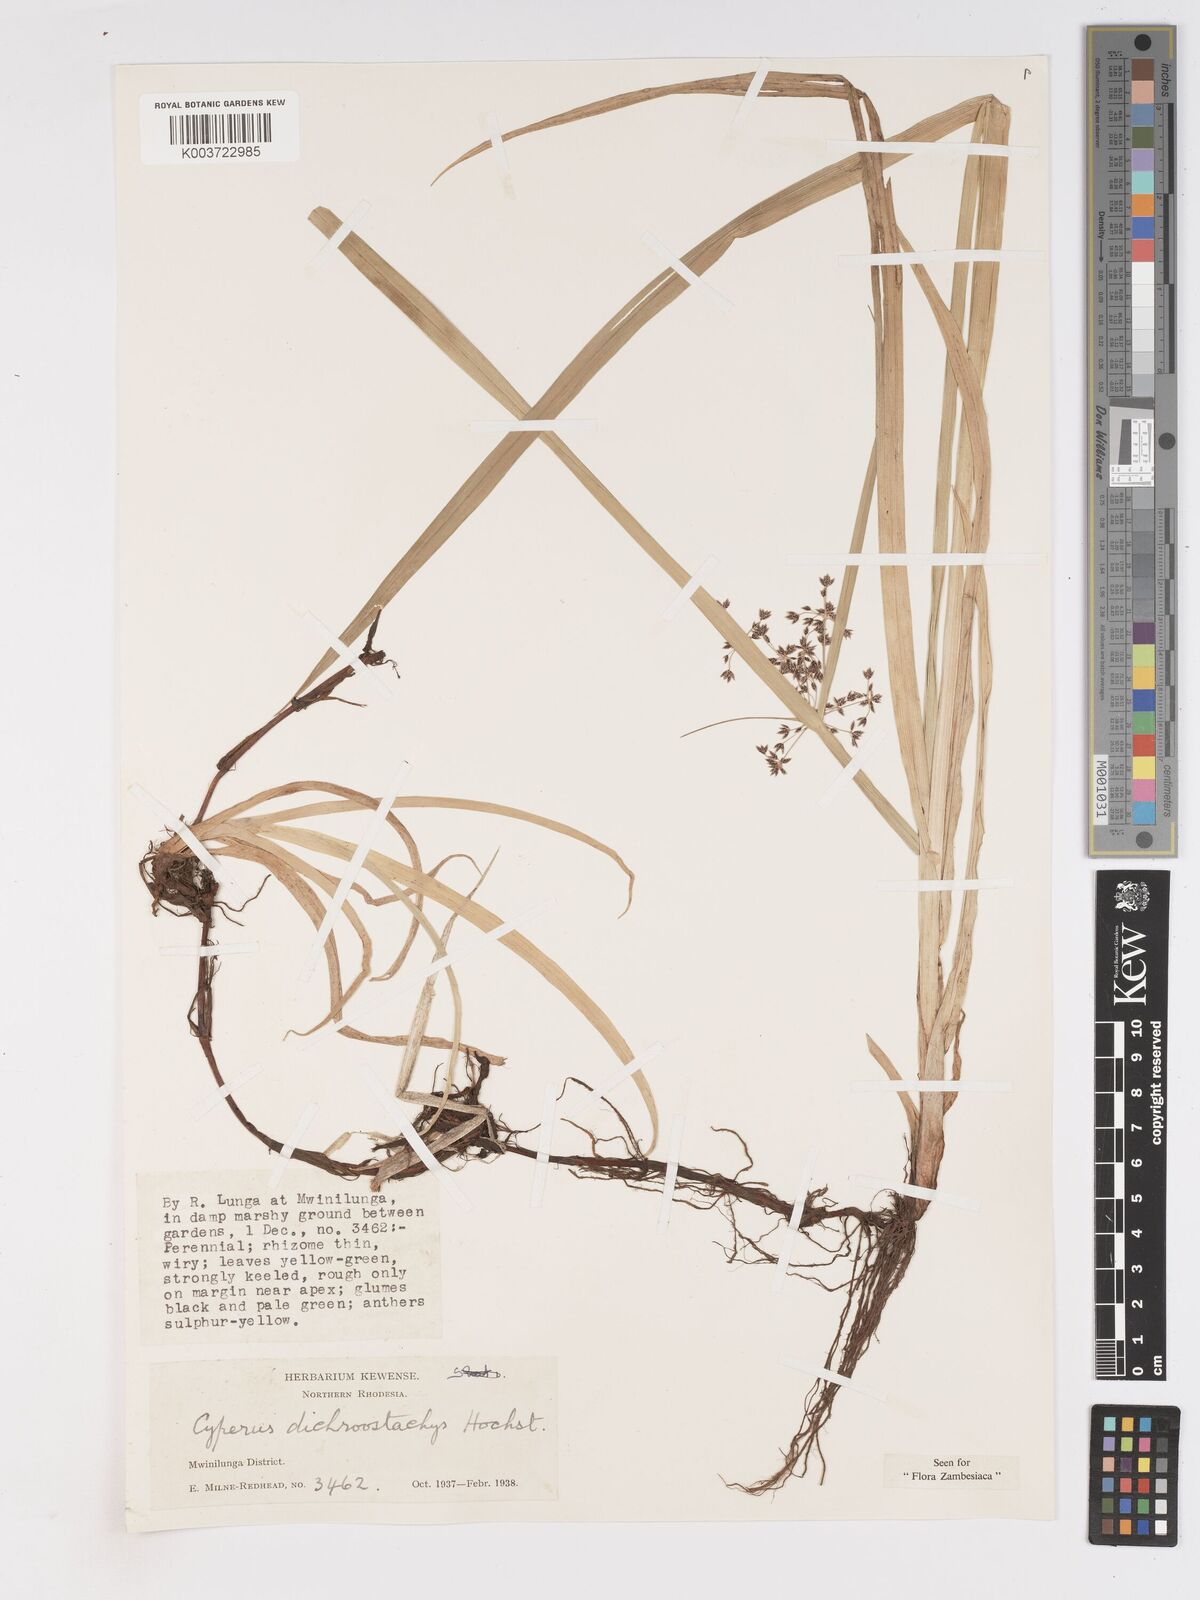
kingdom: Plantae
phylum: Tracheophyta
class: Liliopsida
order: Poales
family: Cyperaceae
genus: Cyperus
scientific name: Cyperus dichrostachyus
